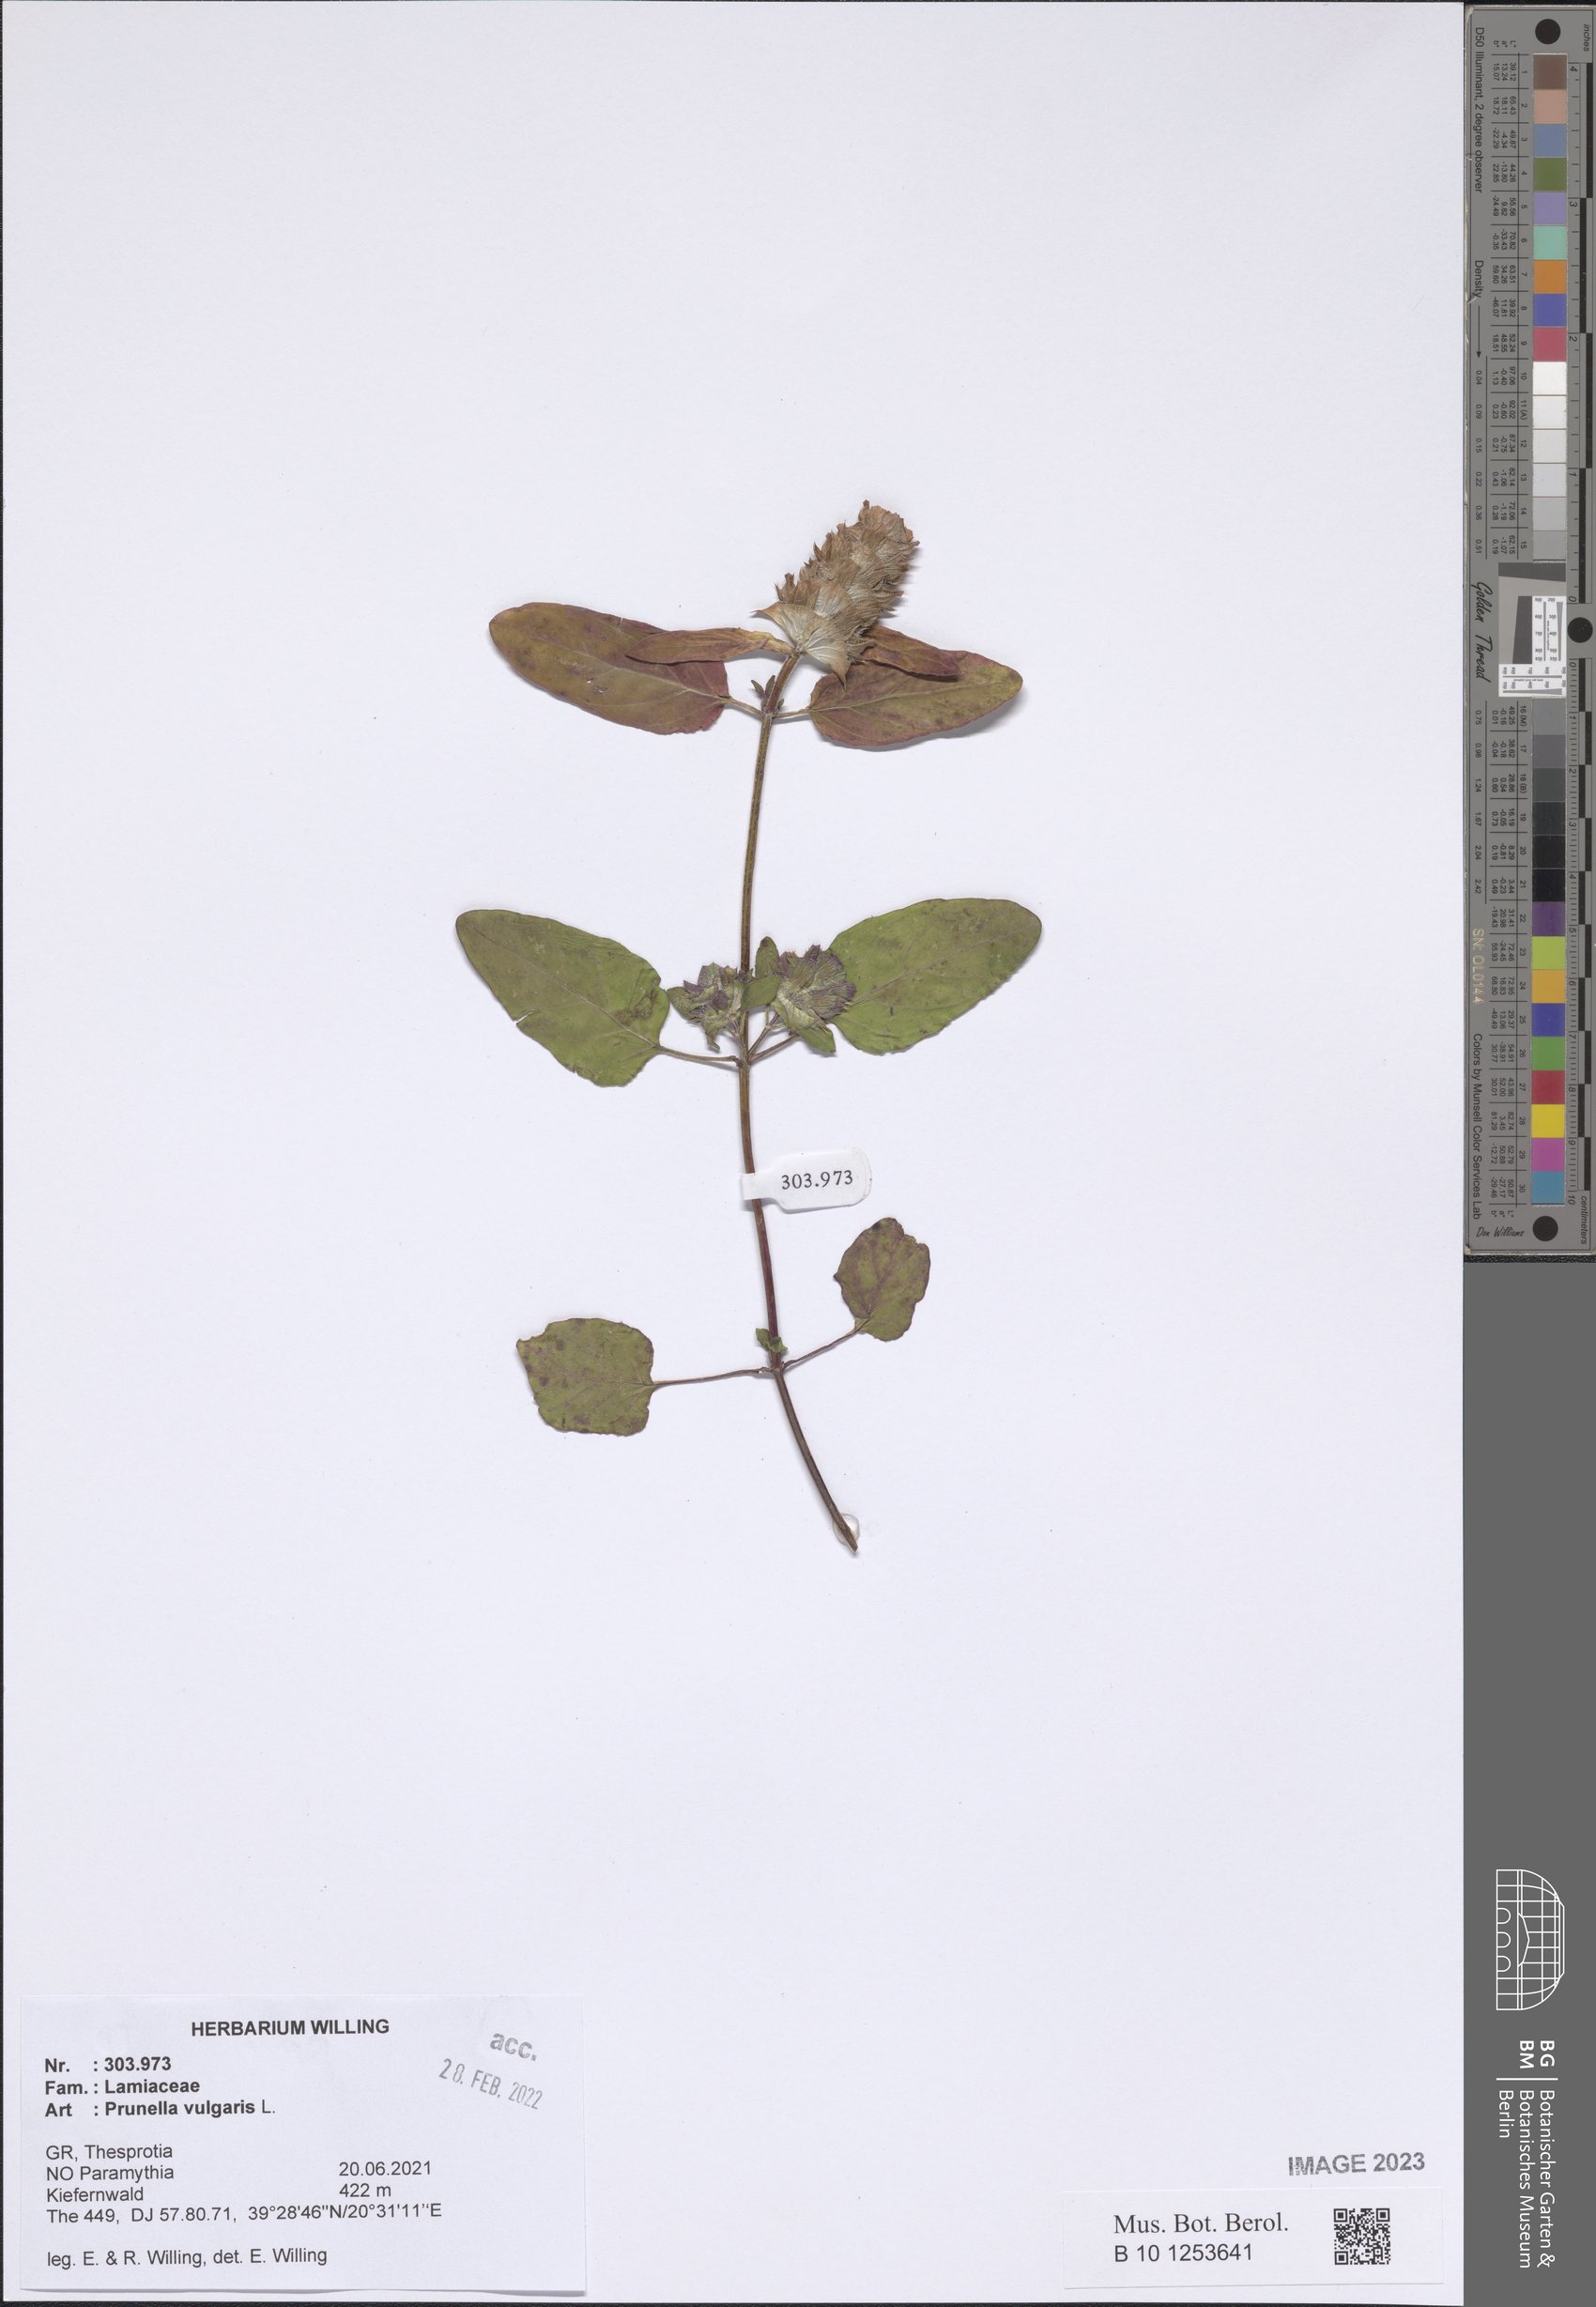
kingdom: Plantae
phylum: Tracheophyta
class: Magnoliopsida
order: Lamiales
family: Lamiaceae
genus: Prunella
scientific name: Prunella vulgaris
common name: Heal-all
